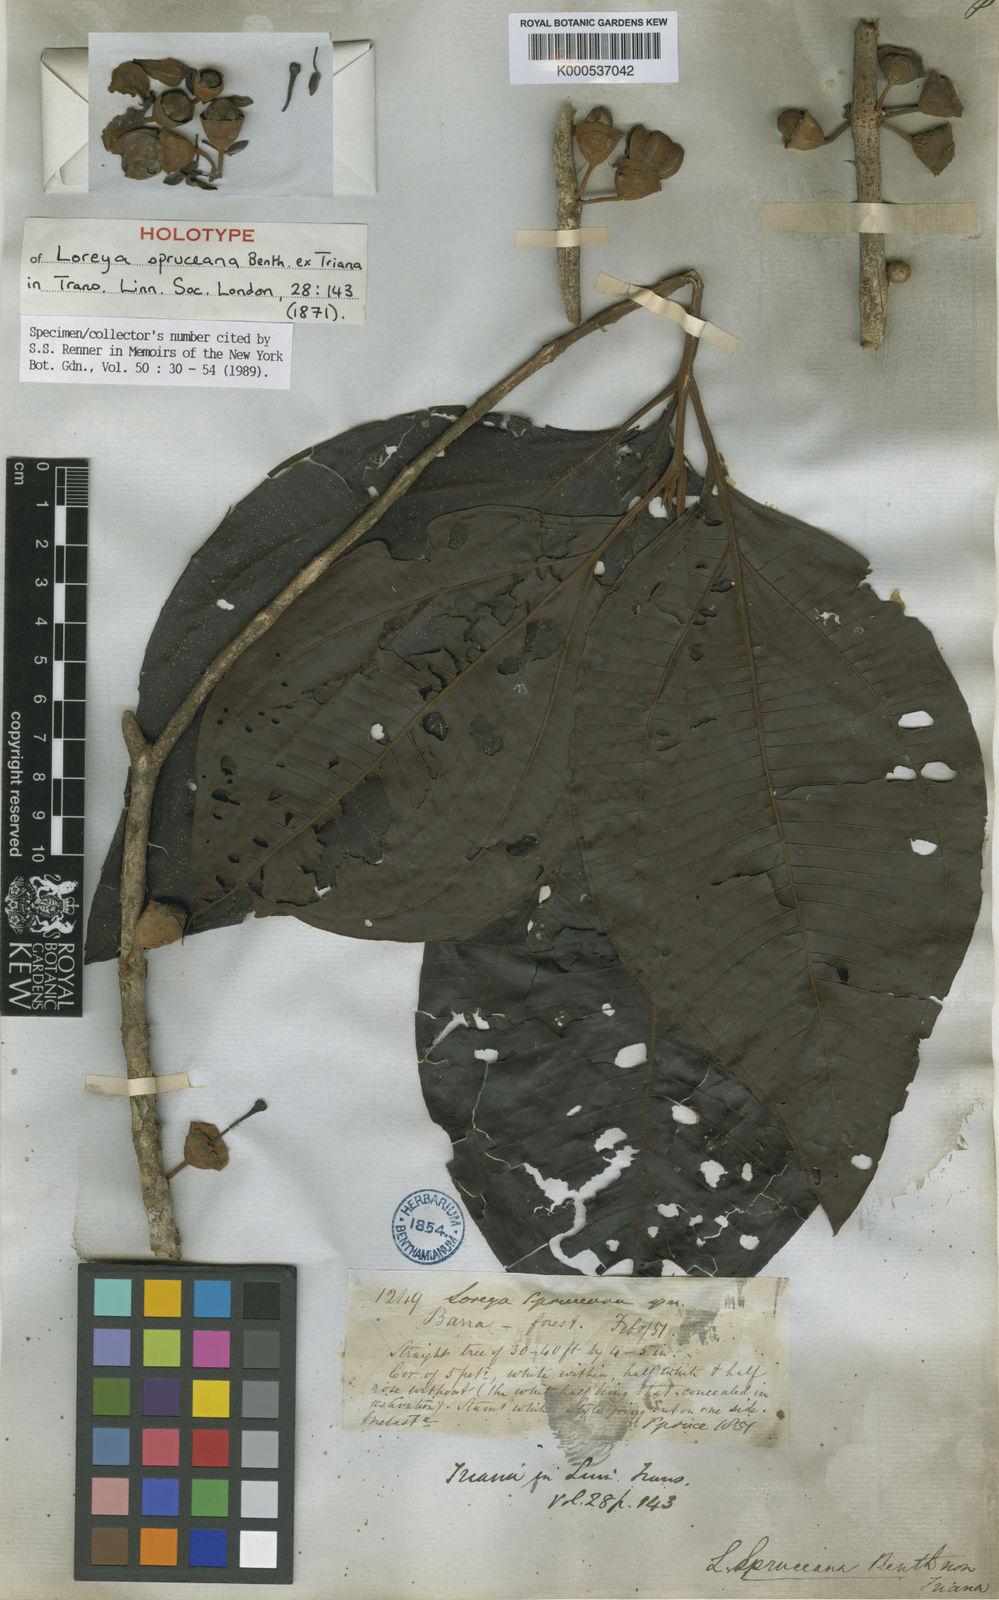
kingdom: Plantae
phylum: Tracheophyta
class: Magnoliopsida
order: Myrtales
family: Melastomataceae
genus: Bellucia
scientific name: Bellucia spruceana
